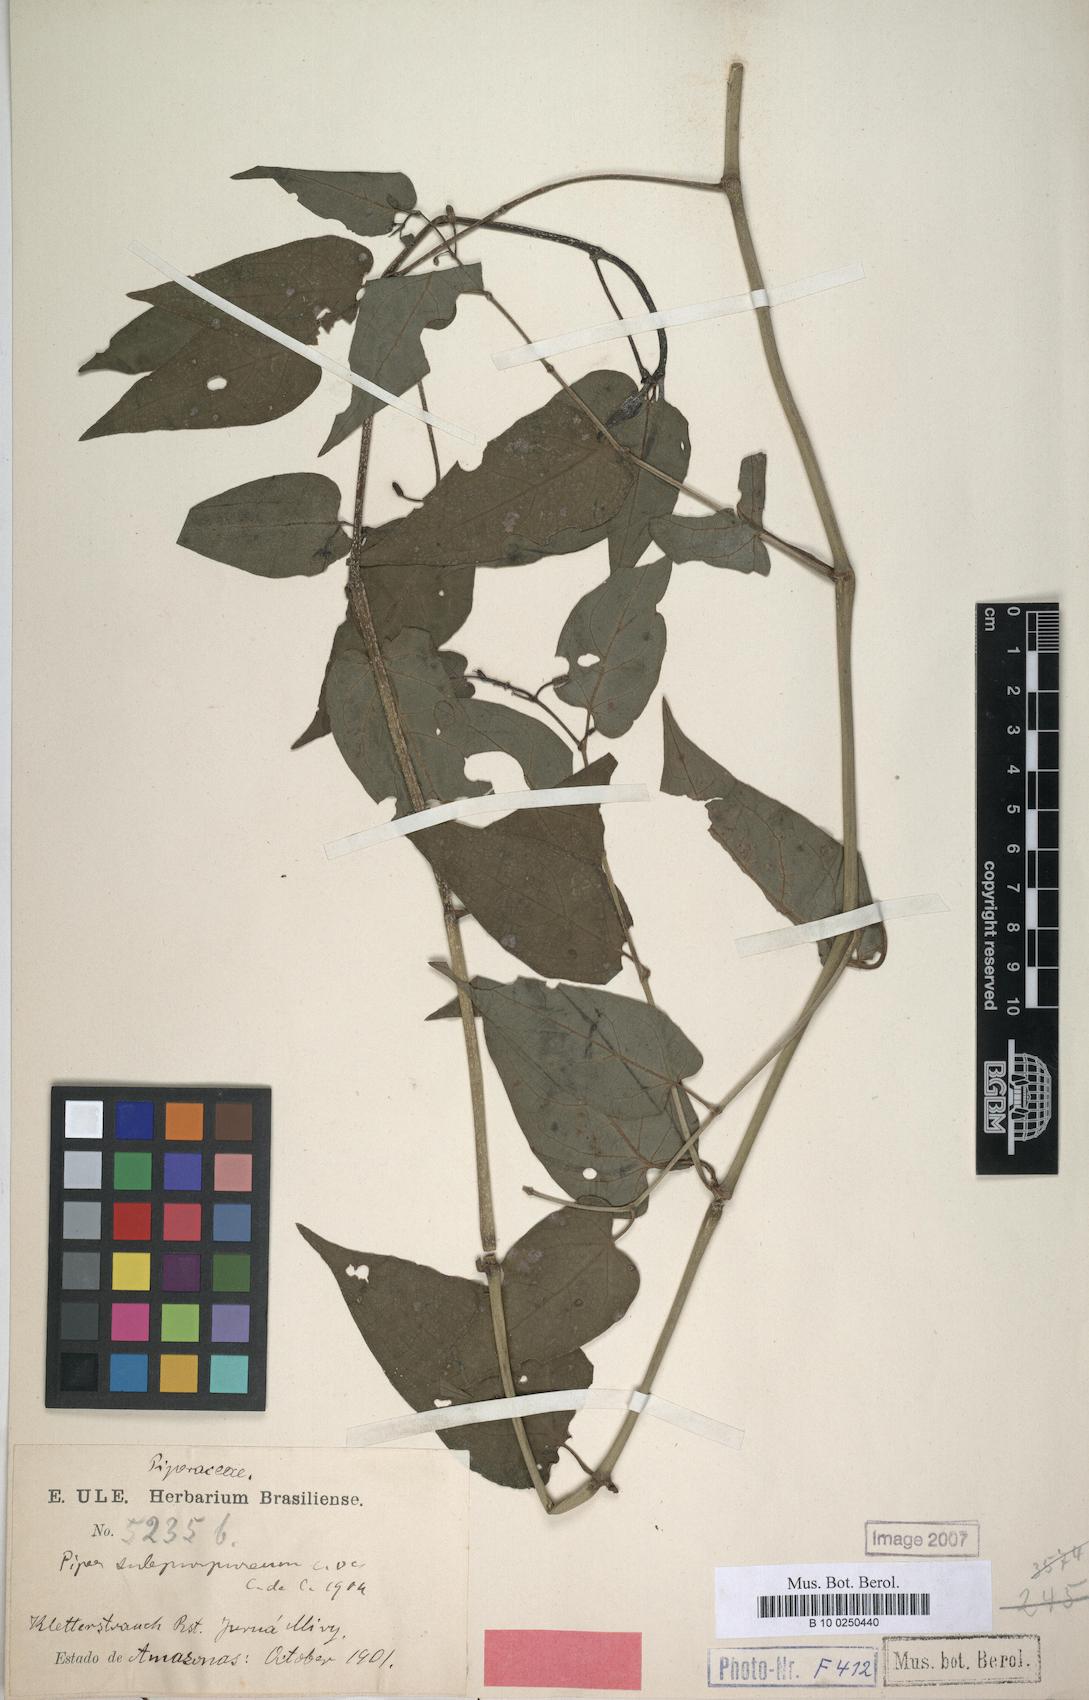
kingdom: Plantae
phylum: Tracheophyta
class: Magnoliopsida
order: Piperales
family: Piperaceae
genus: Piper
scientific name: Piper chavicoides
